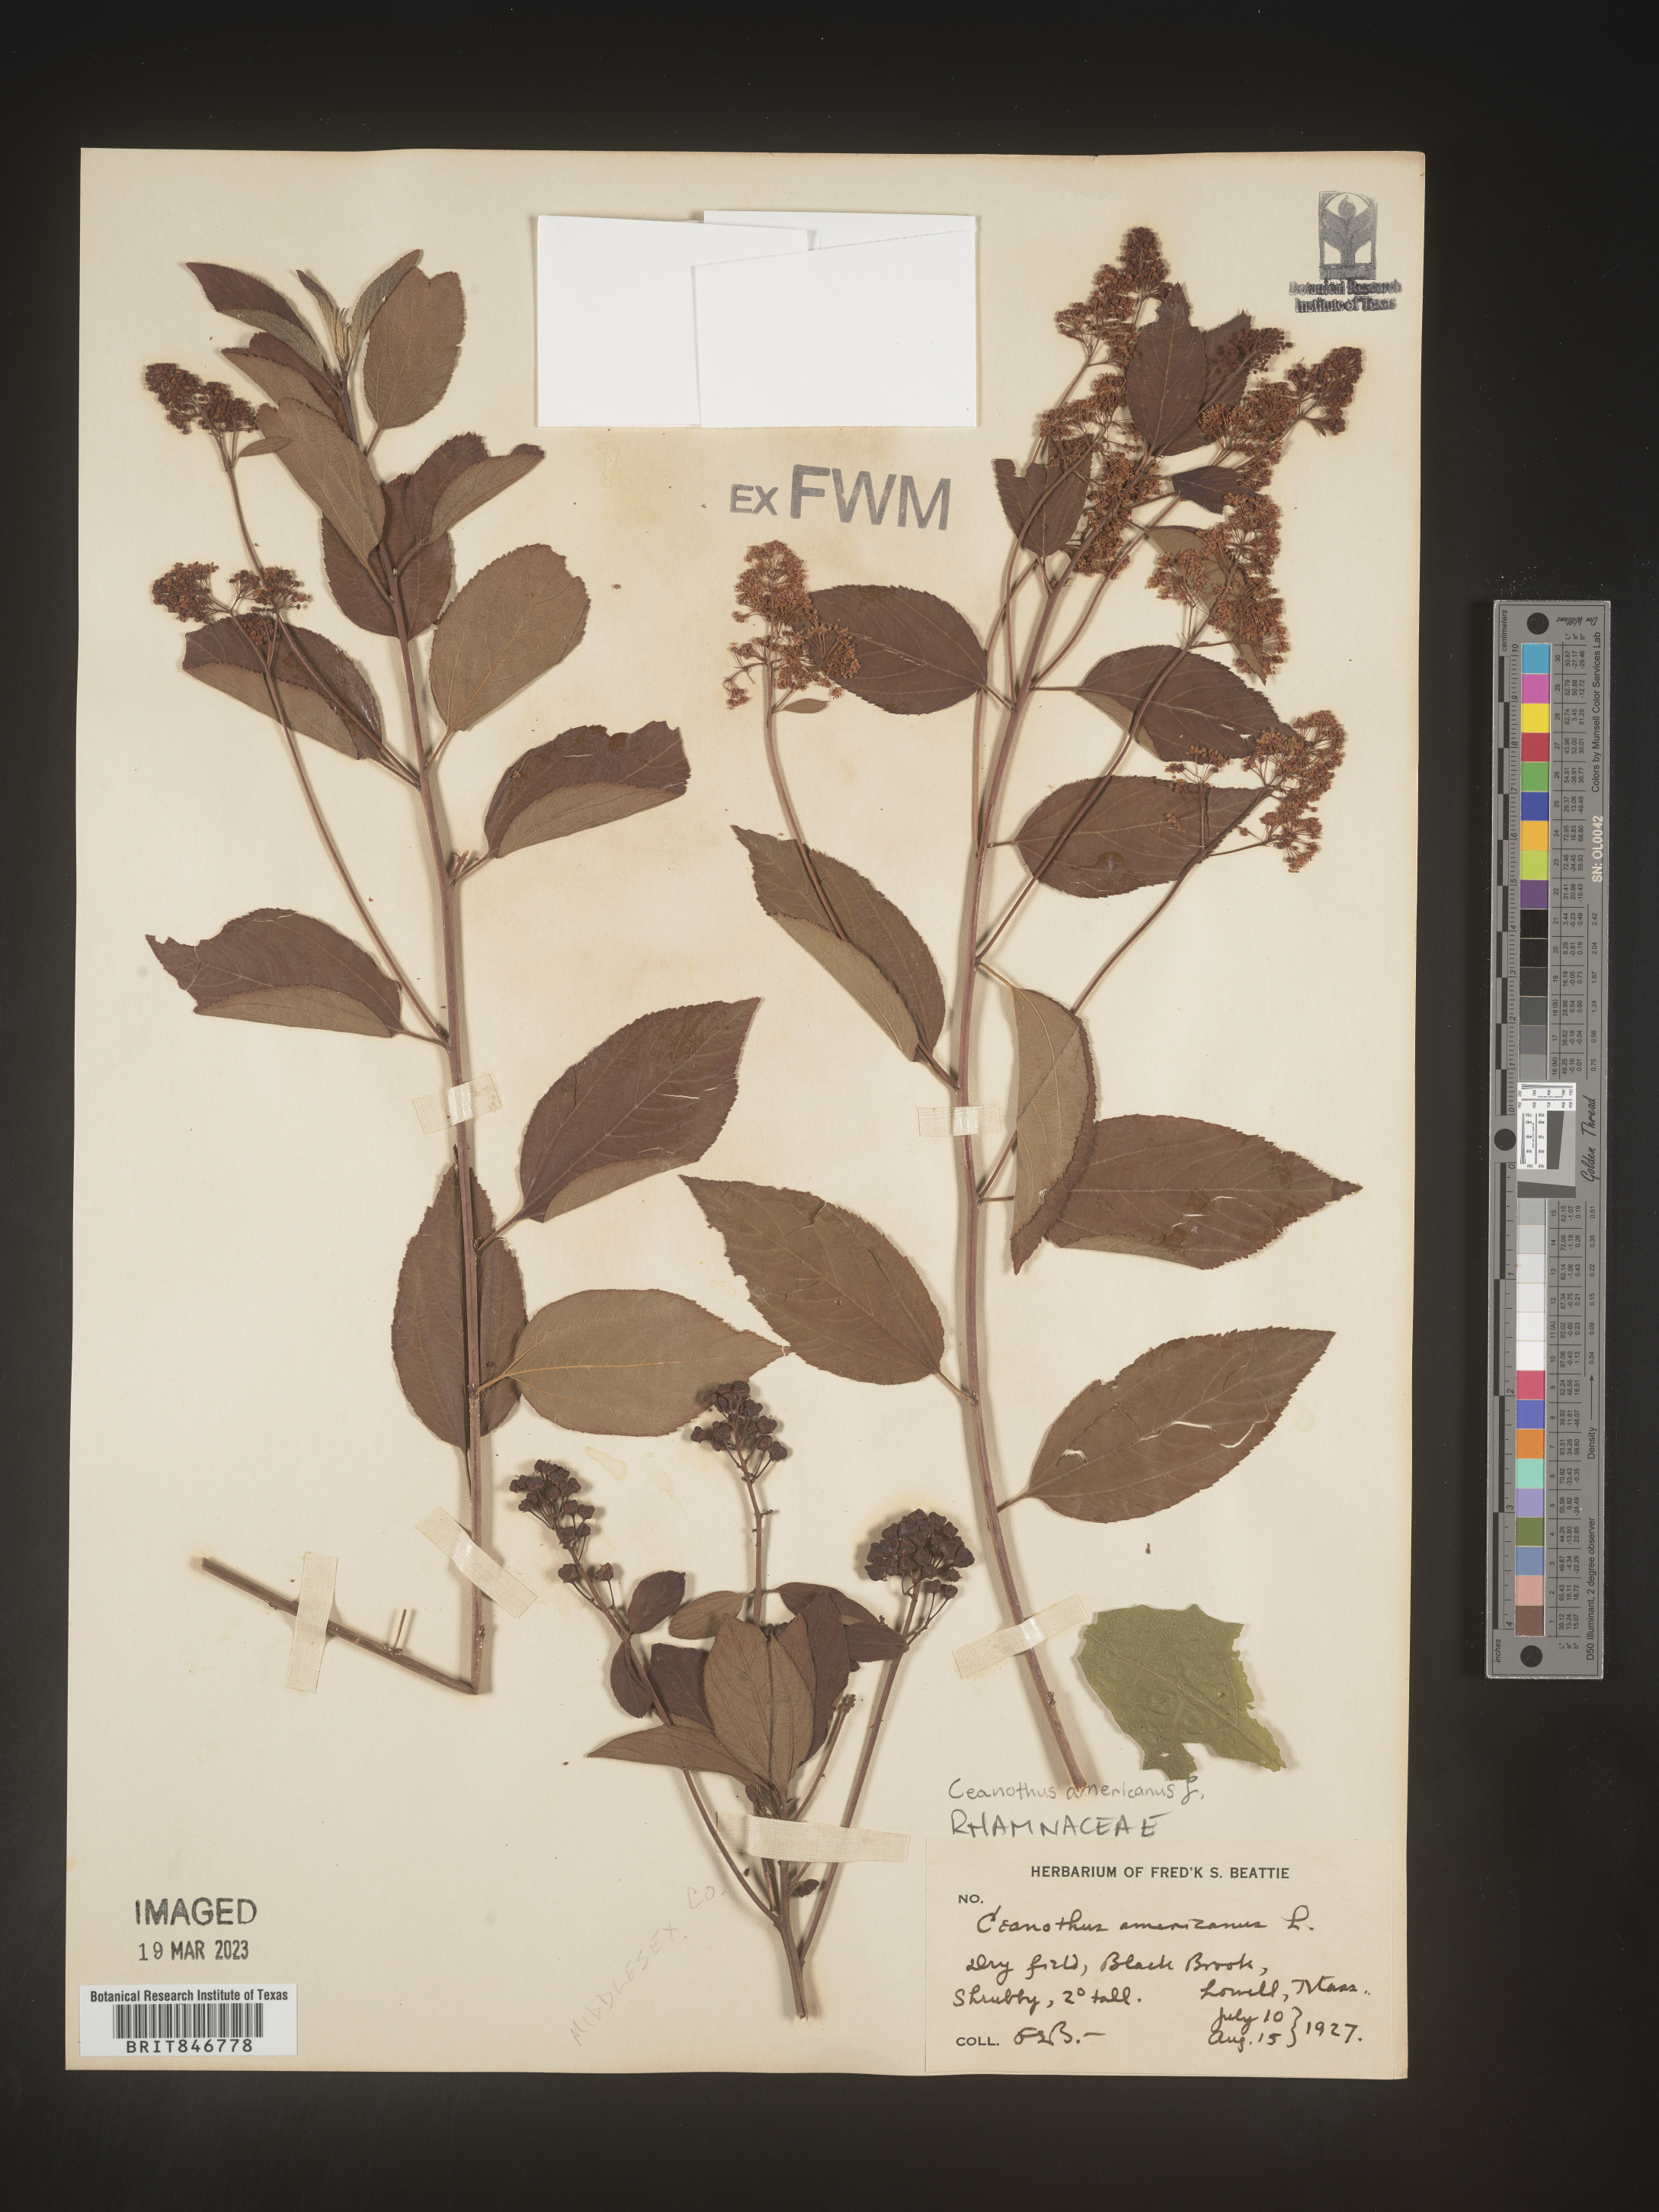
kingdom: Plantae
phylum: Tracheophyta
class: Magnoliopsida
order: Rosales
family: Rhamnaceae
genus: Ceanothus
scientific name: Ceanothus americanus
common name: Redroot
